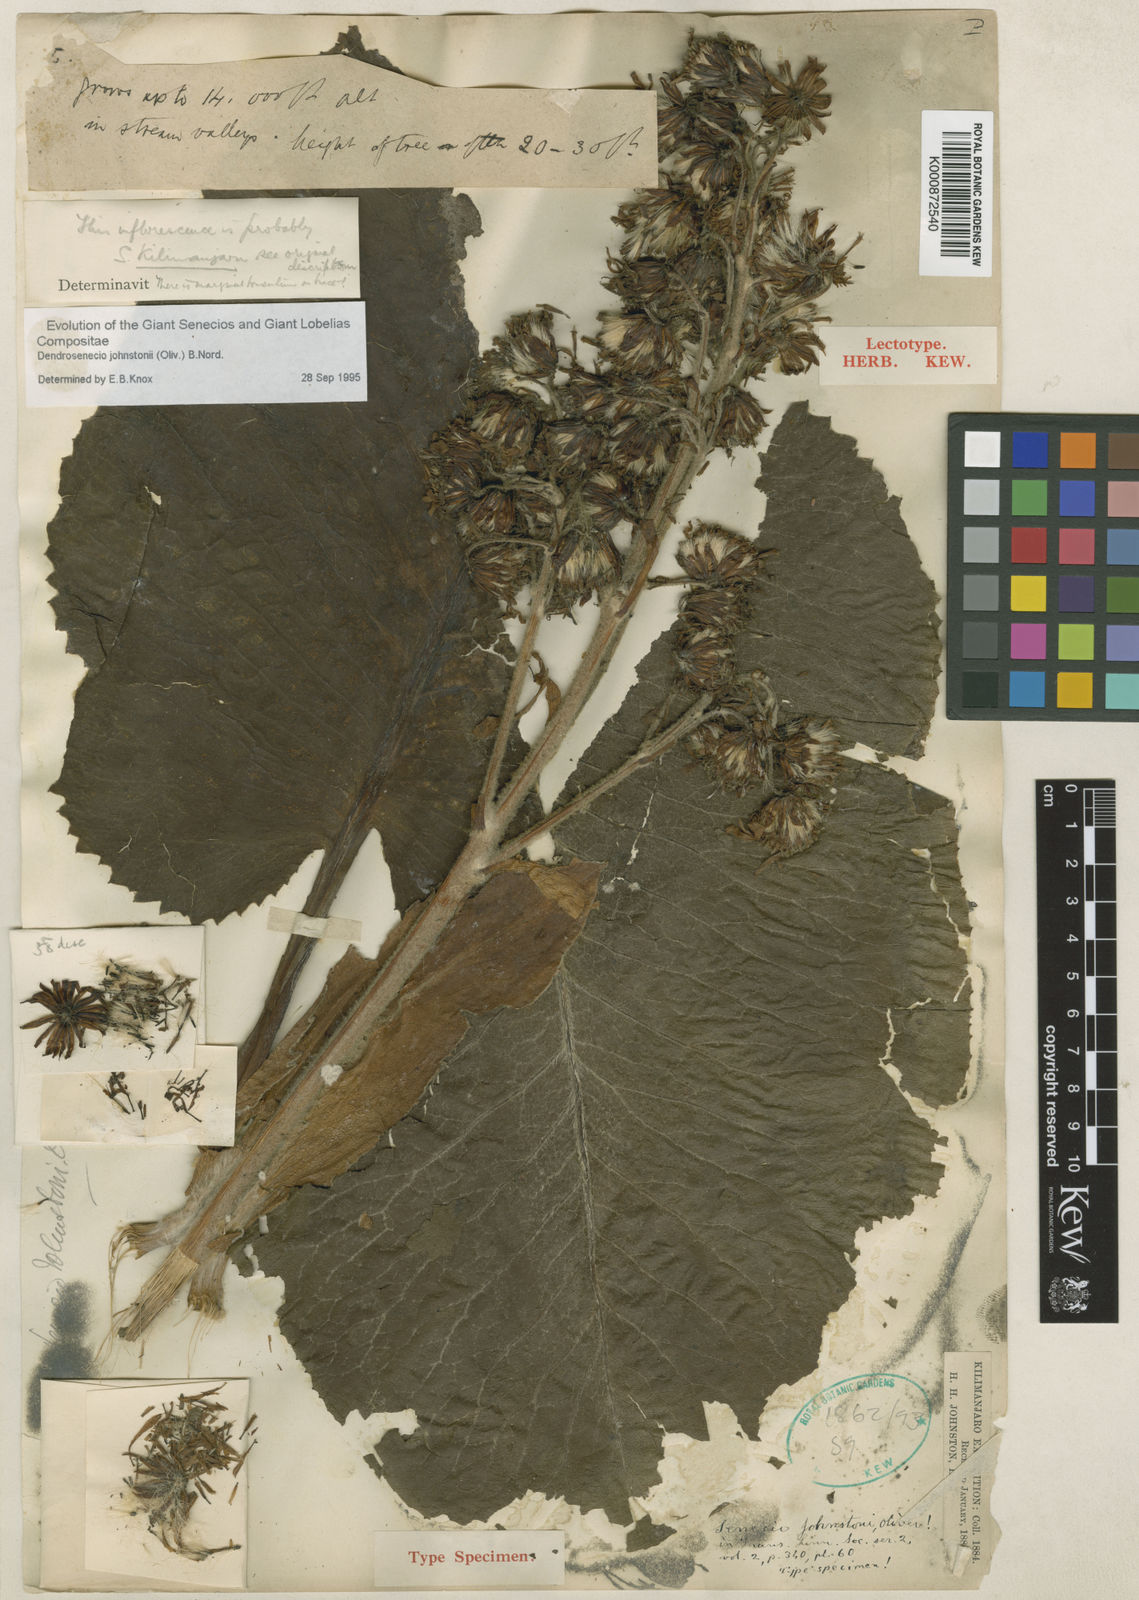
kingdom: Plantae
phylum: Tracheophyta
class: Magnoliopsida
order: Asterales
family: Asteraceae
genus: Dendrosenecio
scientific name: Dendrosenecio johnstonii
